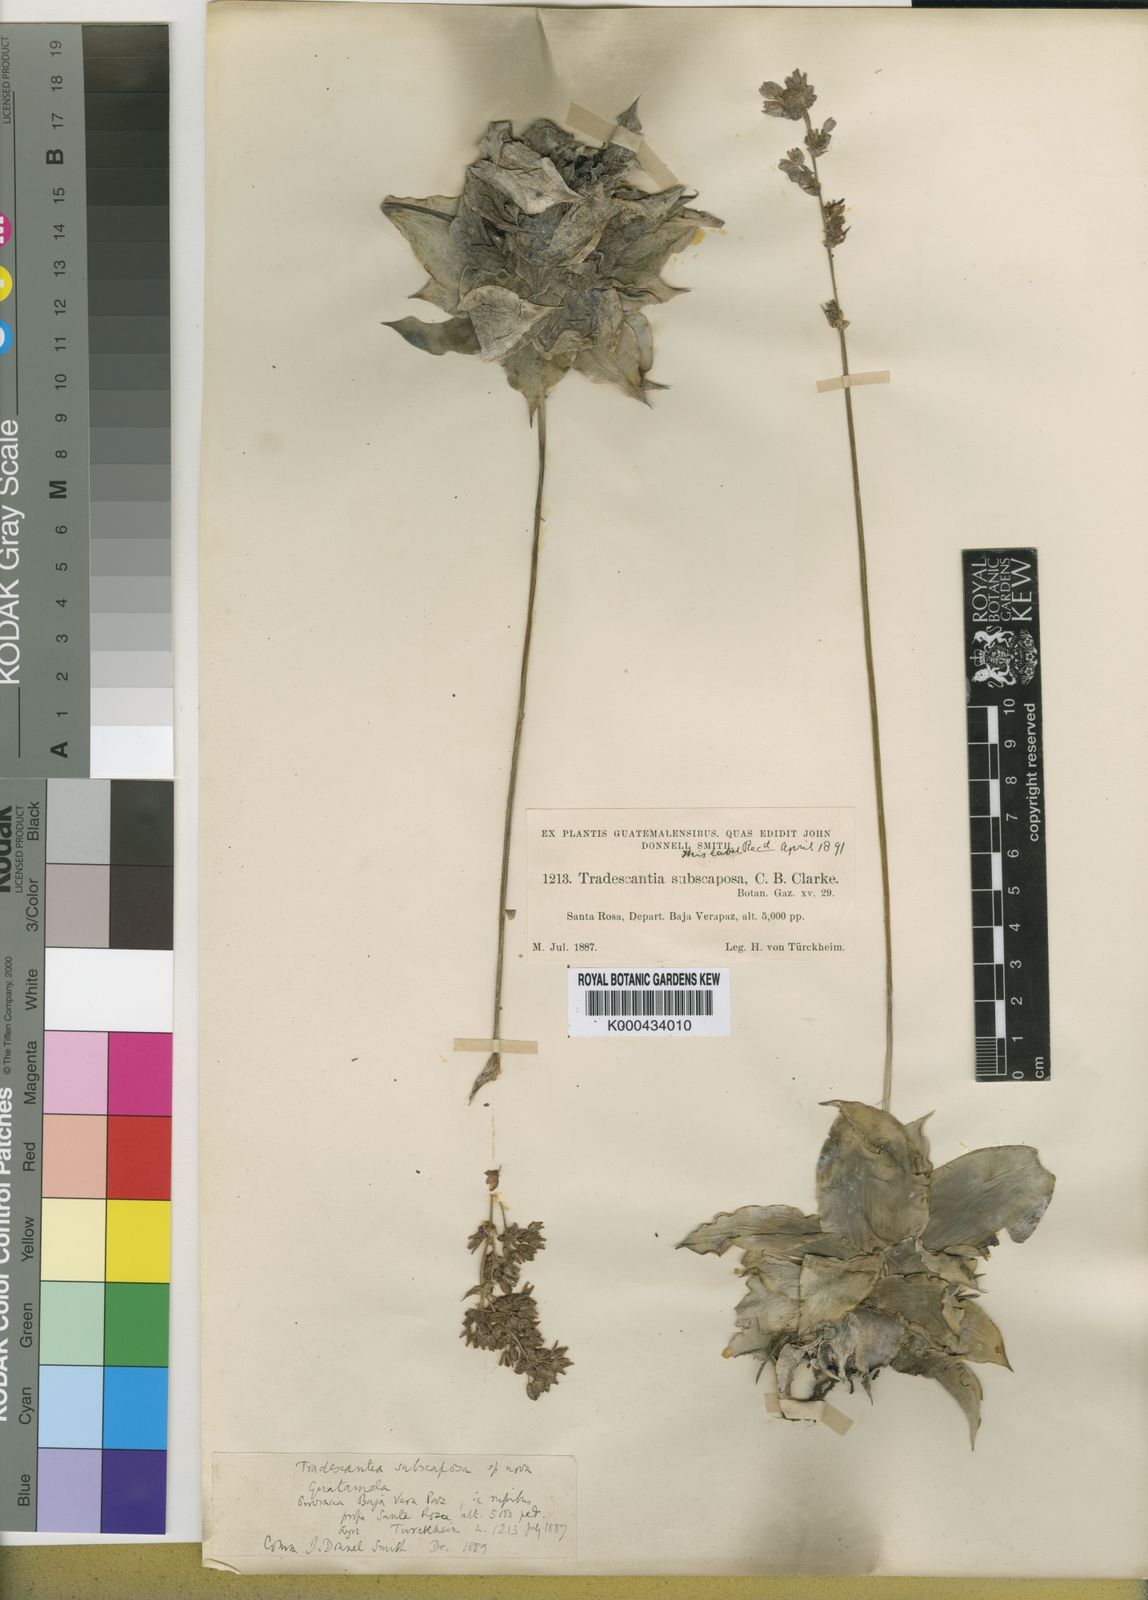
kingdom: Plantae
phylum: Tracheophyta
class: Liliopsida
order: Commelinales
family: Commelinaceae
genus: Tradescantia
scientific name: Tradescantia
